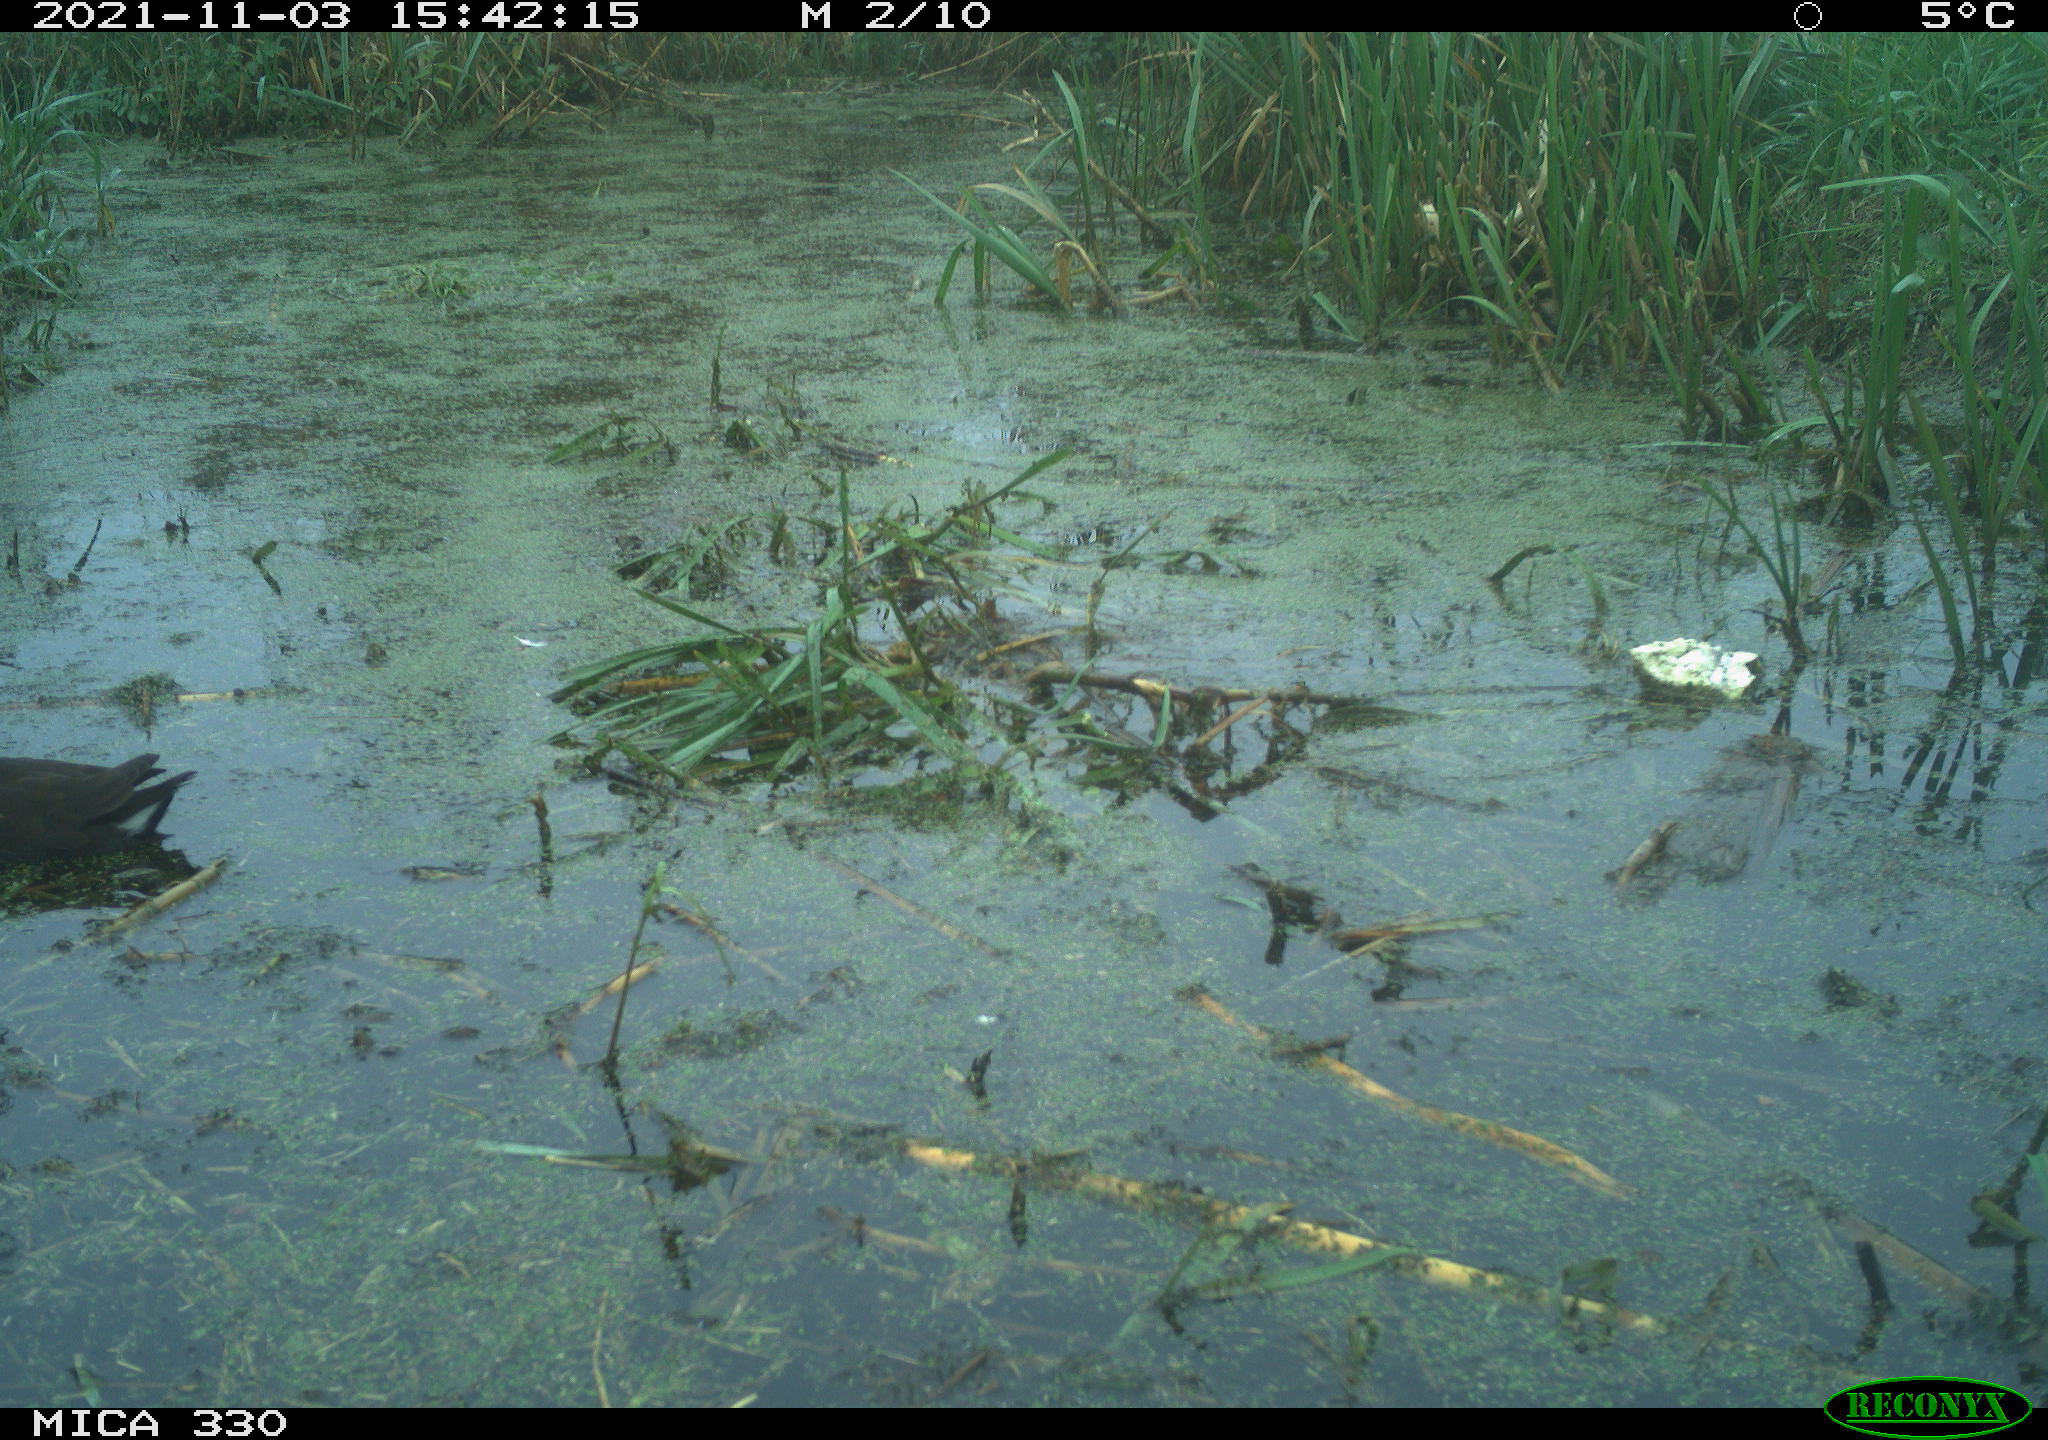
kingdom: Animalia
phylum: Chordata
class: Aves
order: Gruiformes
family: Rallidae
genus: Gallinula
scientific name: Gallinula chloropus
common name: Common moorhen
